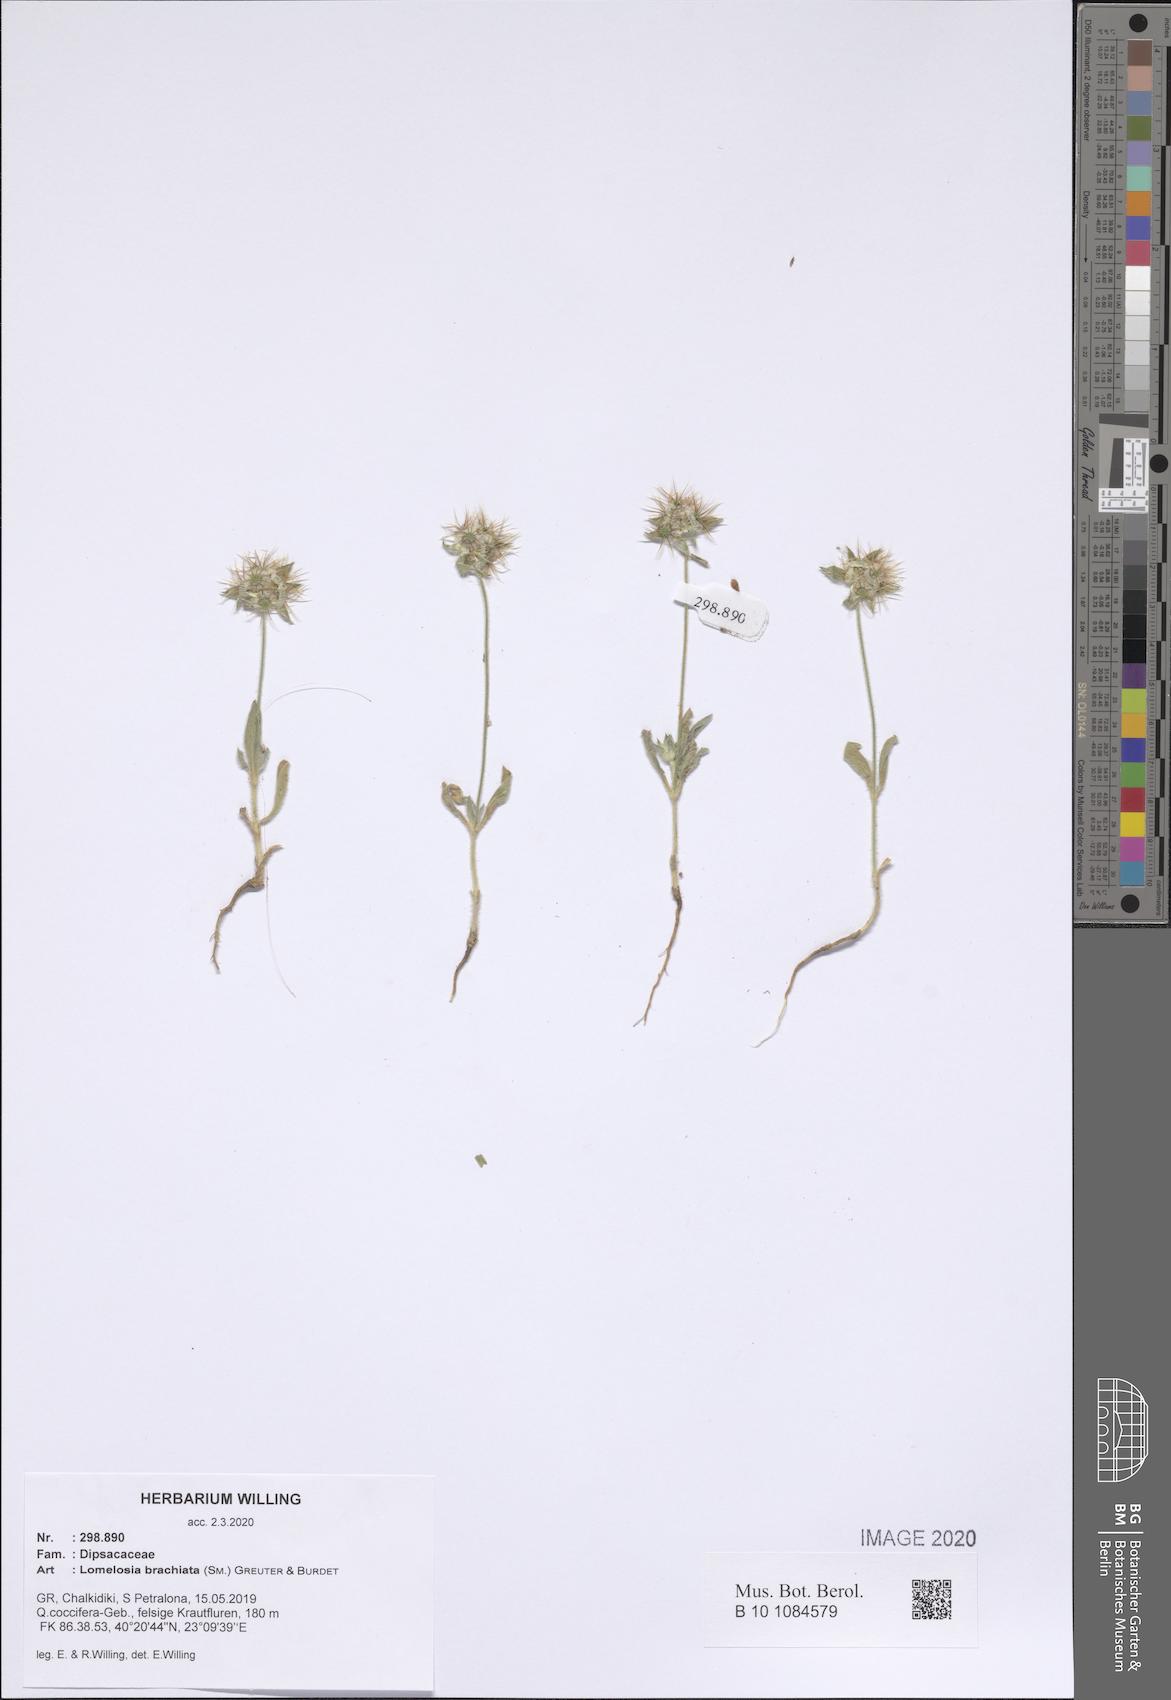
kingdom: Plantae
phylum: Tracheophyta
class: Magnoliopsida
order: Dipsacales
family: Caprifoliaceae
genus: Lomelosia
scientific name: Lomelosia brachiata
